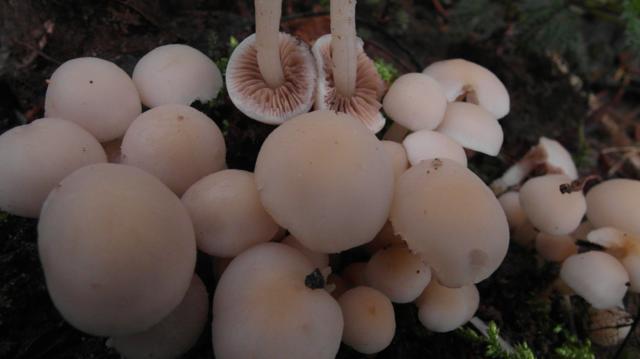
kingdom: Fungi
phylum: Basidiomycota
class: Agaricomycetes
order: Agaricales
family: Psathyrellaceae
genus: Homophron
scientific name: Homophron cernuum
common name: hvidlig mørkhat
